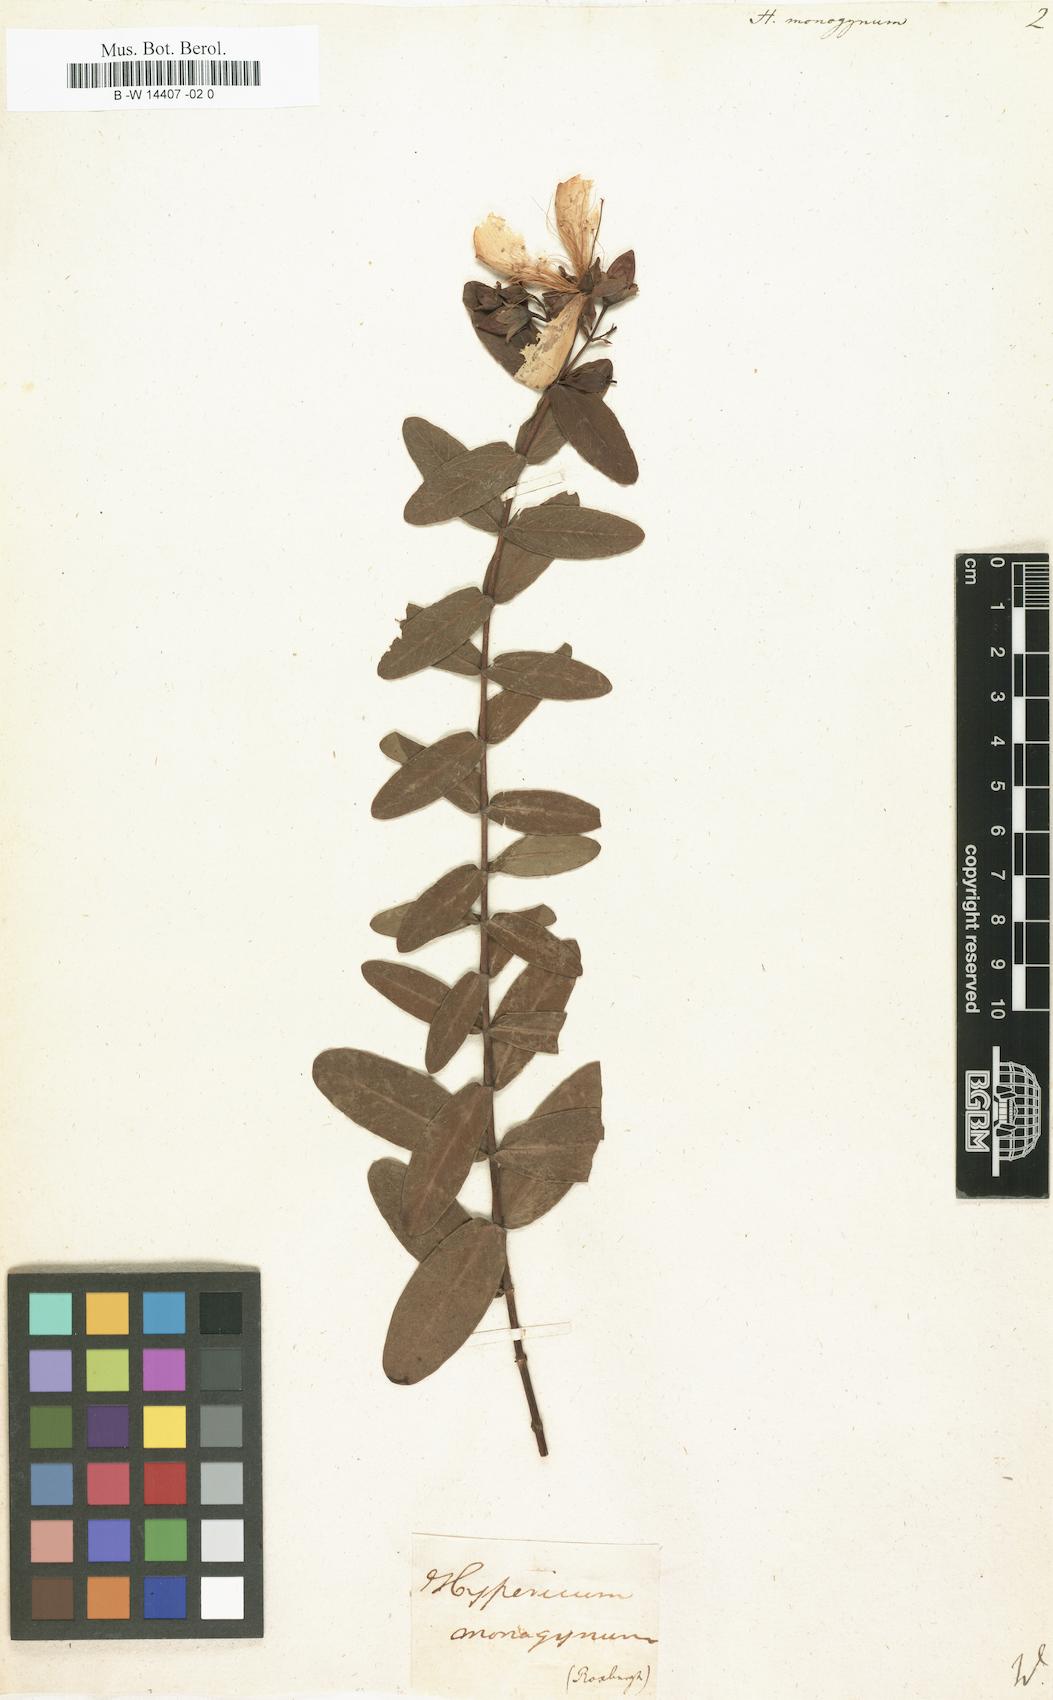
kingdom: Plantae
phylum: Tracheophyta
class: Magnoliopsida
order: Malpighiales
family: Hypericaceae
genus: Hypericum
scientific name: Hypericum monogynum
